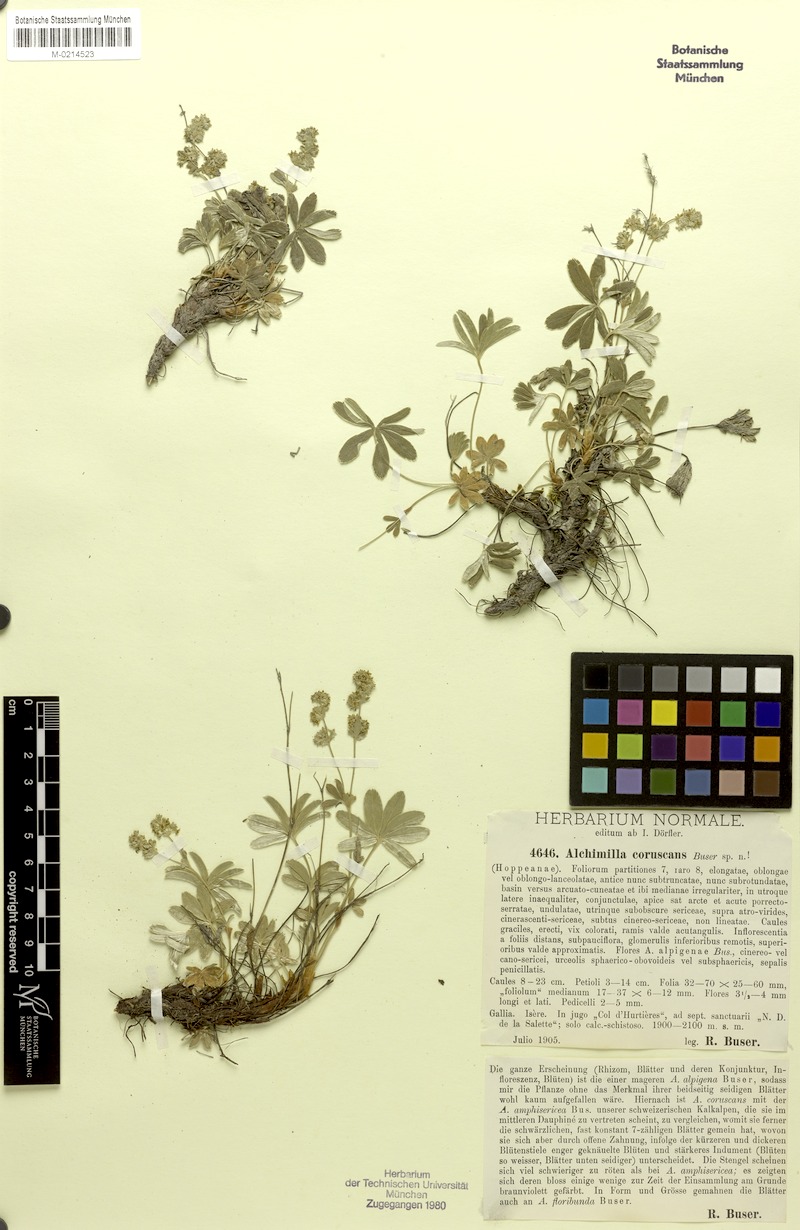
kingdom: Plantae
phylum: Tracheophyta
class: Magnoliopsida
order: Rosales
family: Rosaceae
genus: Alchemilla
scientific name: Alchemilla coruscans
